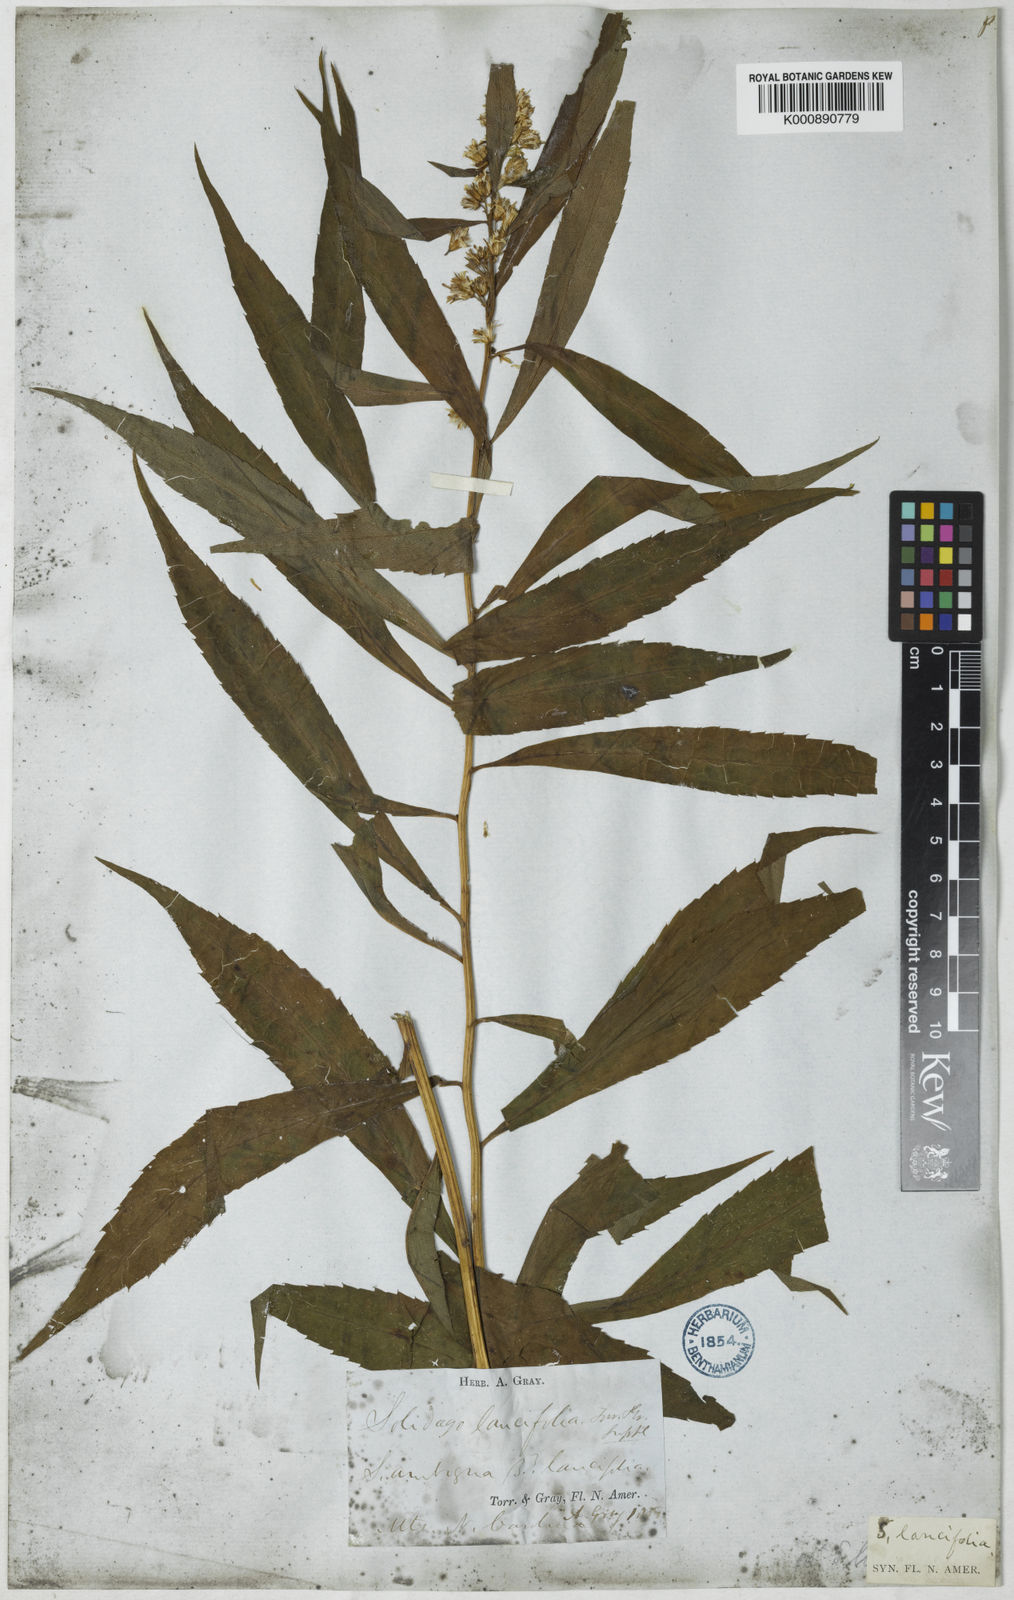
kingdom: Plantae
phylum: Tracheophyta
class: Magnoliopsida
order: Asterales
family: Asteraceae
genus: Solidago
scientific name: Solidago lancifolia
